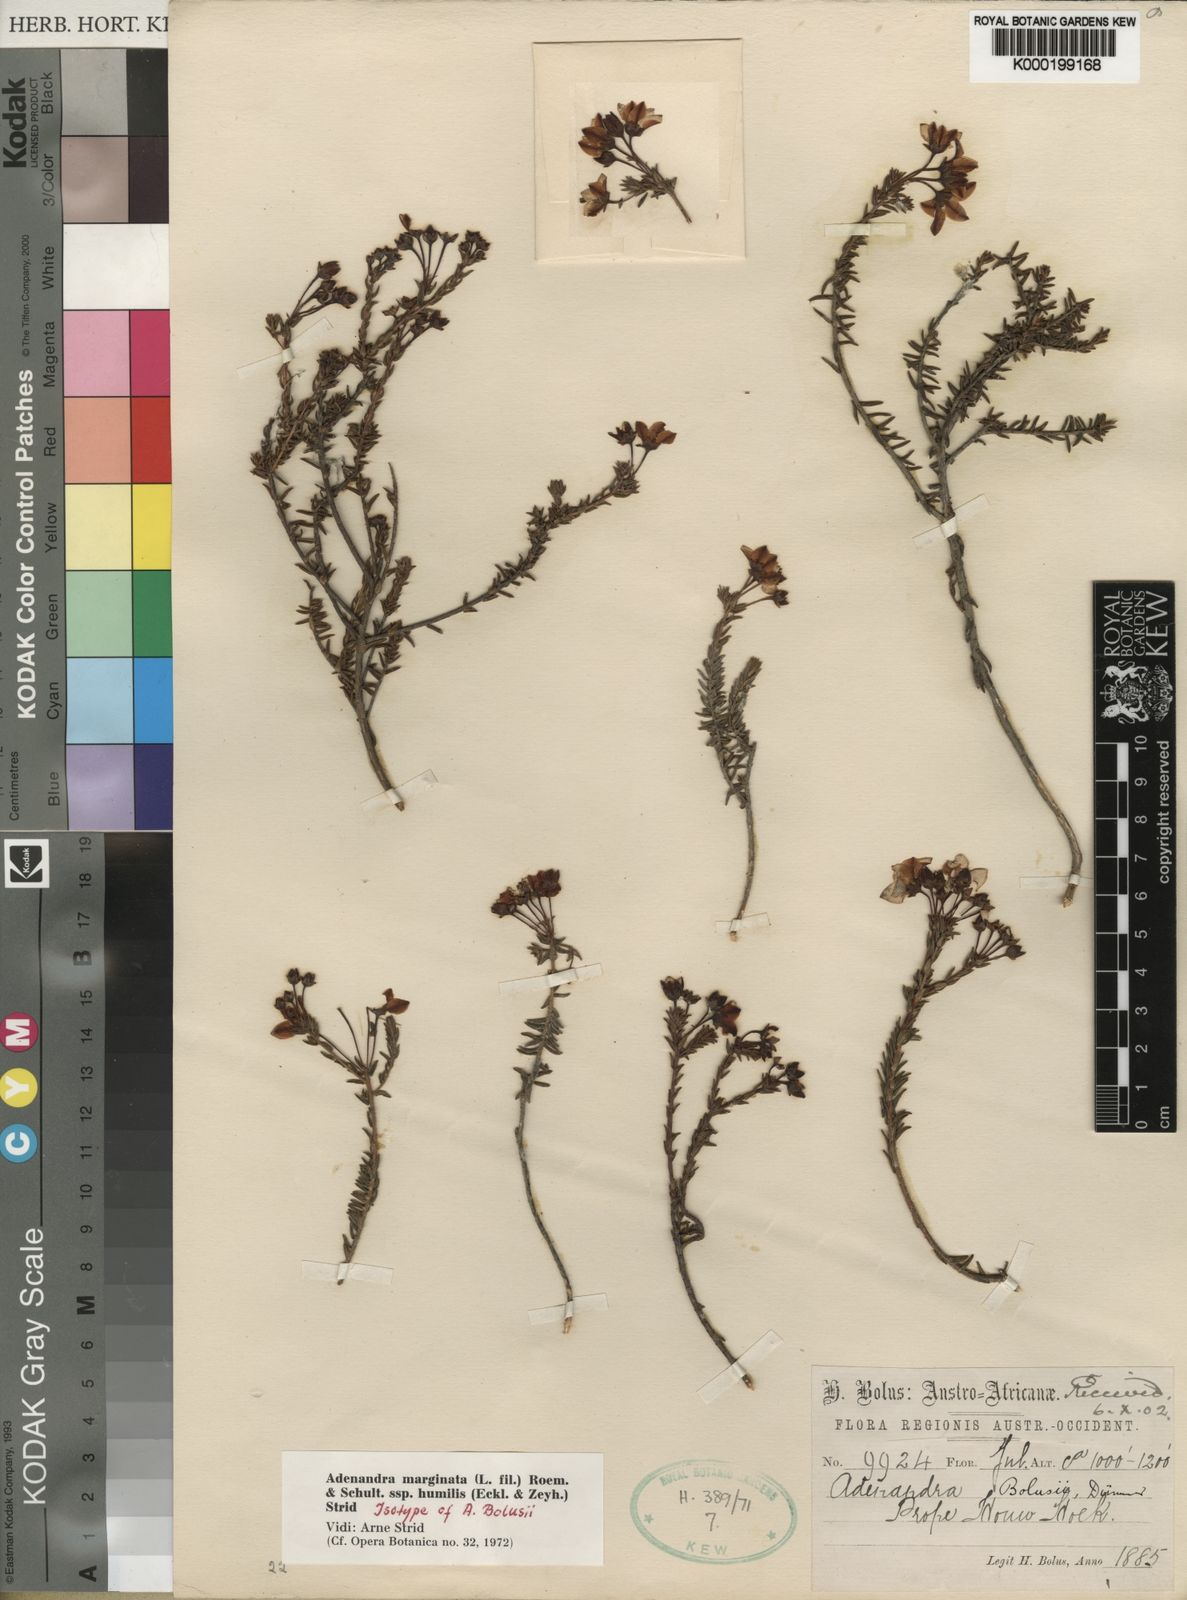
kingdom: Plantae
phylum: Tracheophyta
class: Magnoliopsida
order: Sapindales
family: Rutaceae
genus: Adenandra
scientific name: Adenandra marginata
